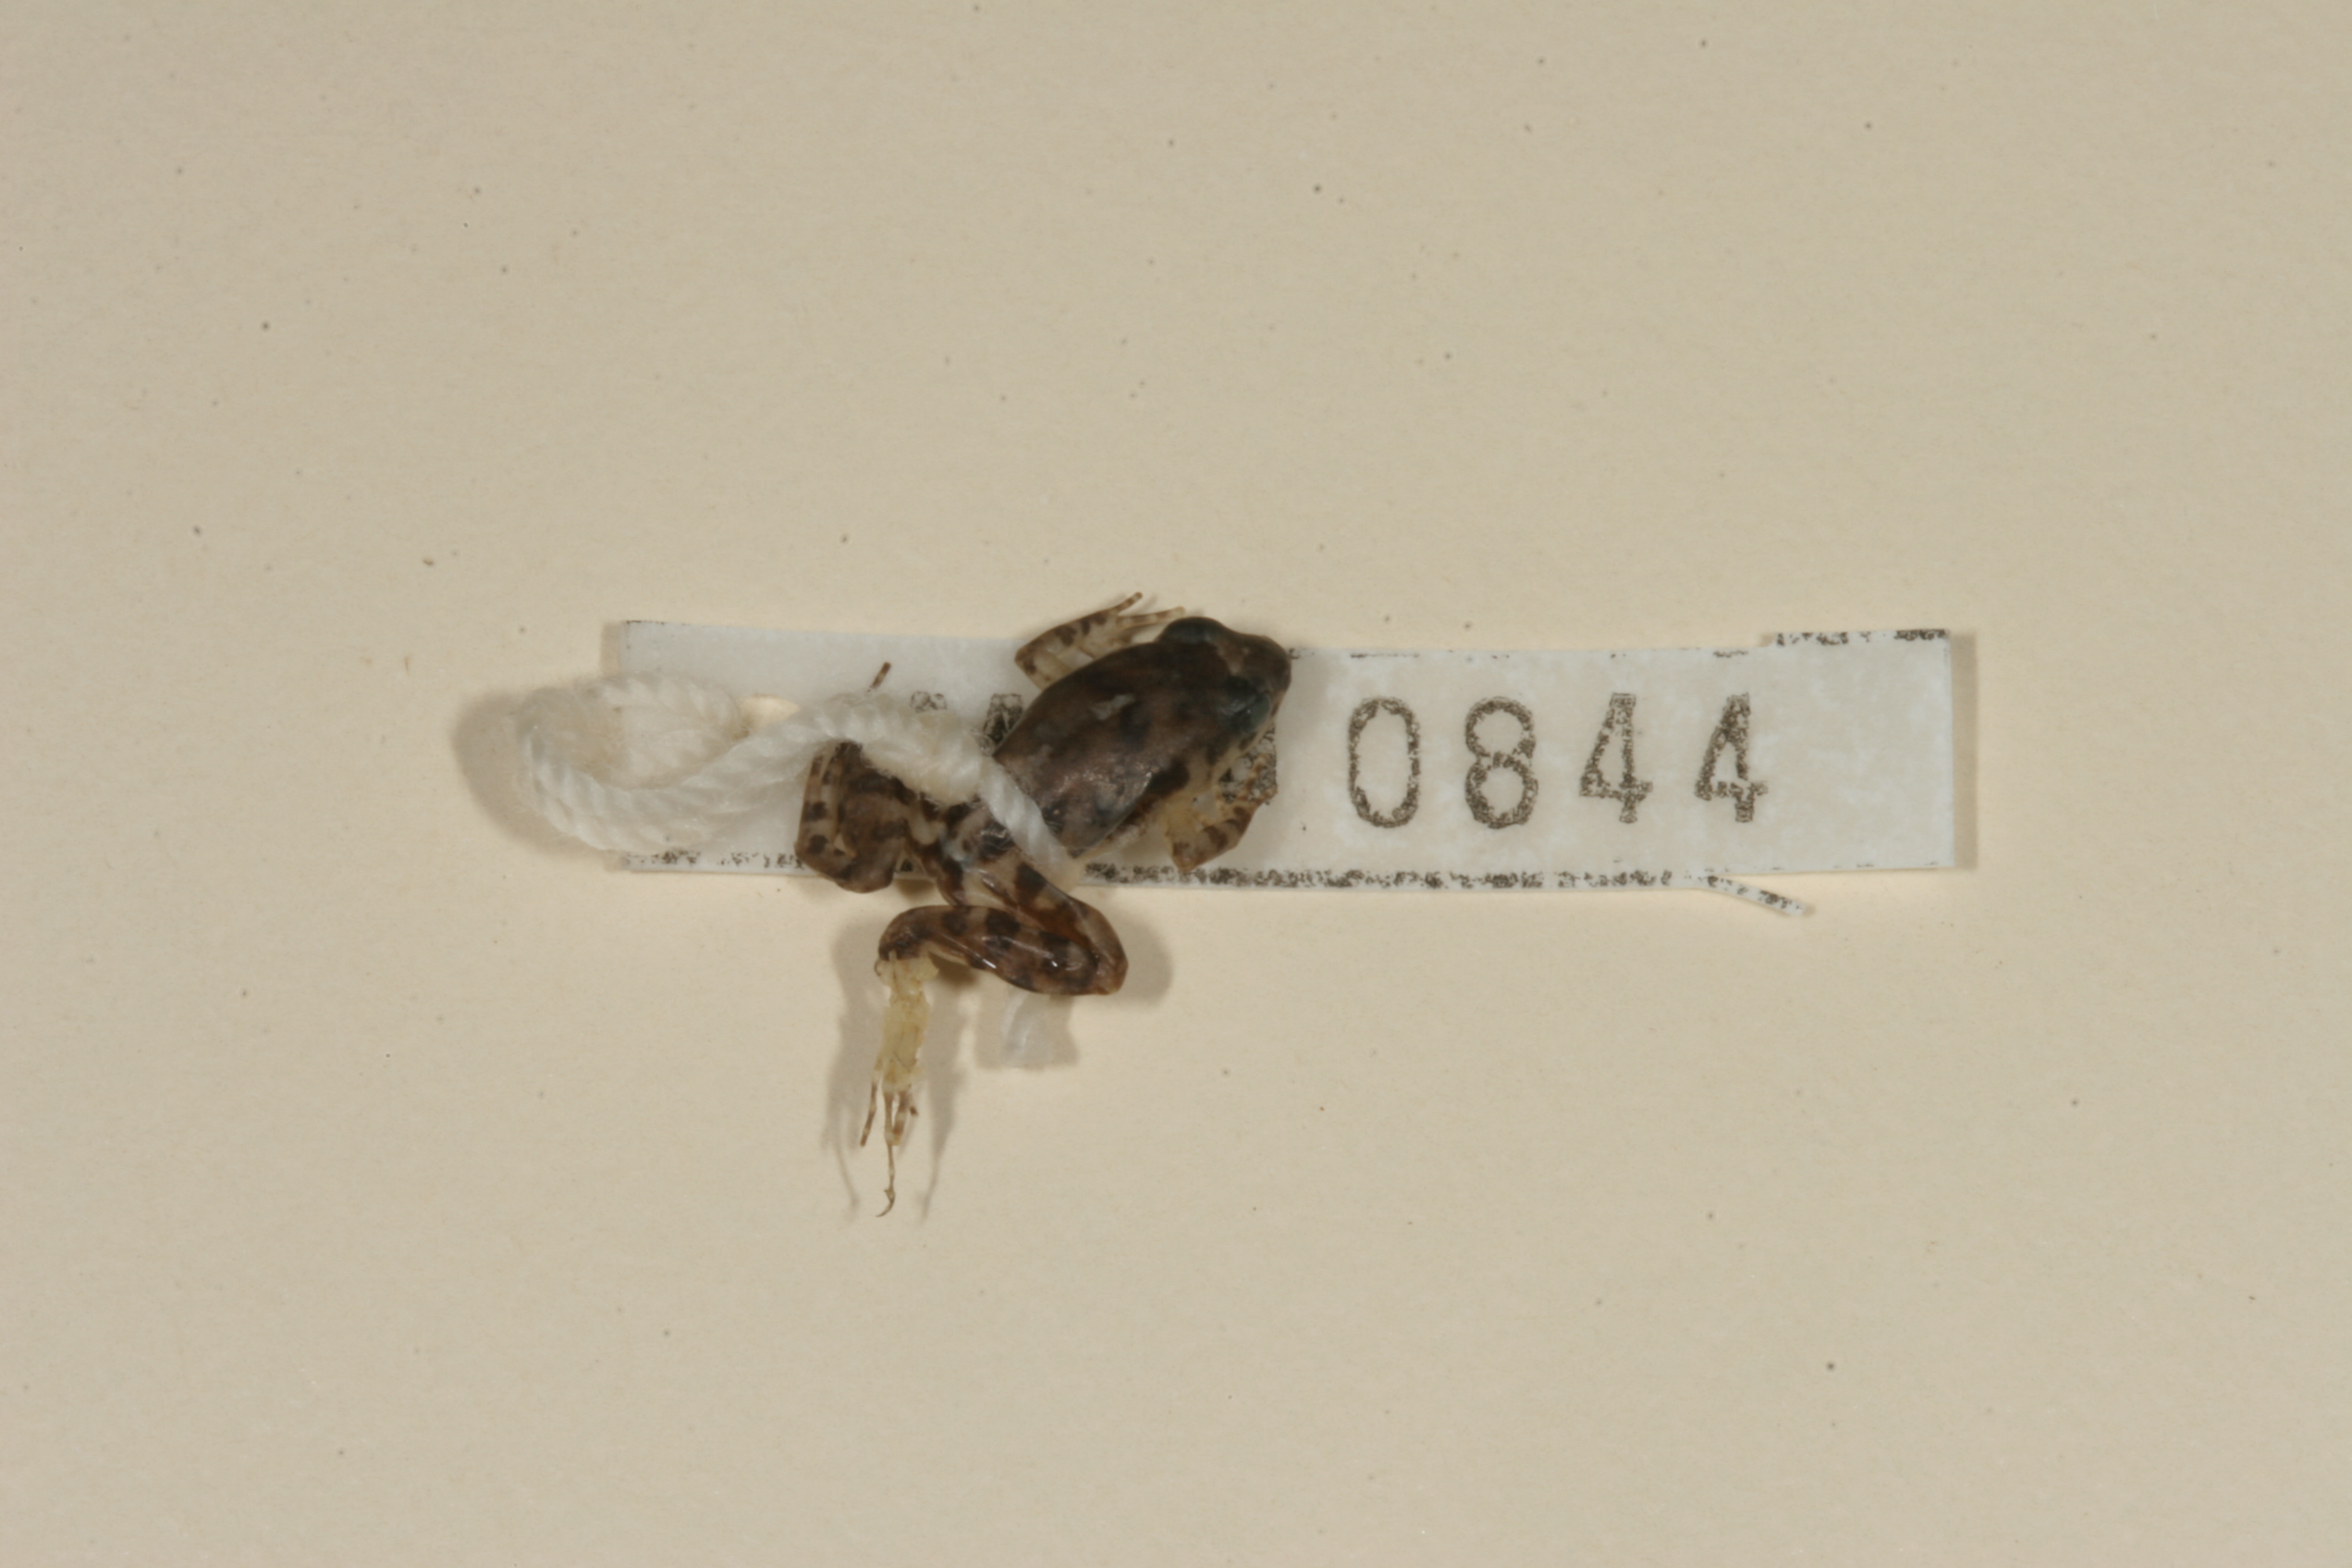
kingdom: Animalia
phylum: Chordata
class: Amphibia
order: Anura
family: Phrynobatrachidae
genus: Phrynobatrachus
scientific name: Phrynobatrachus mababiensis
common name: Dwarf puddle frog
